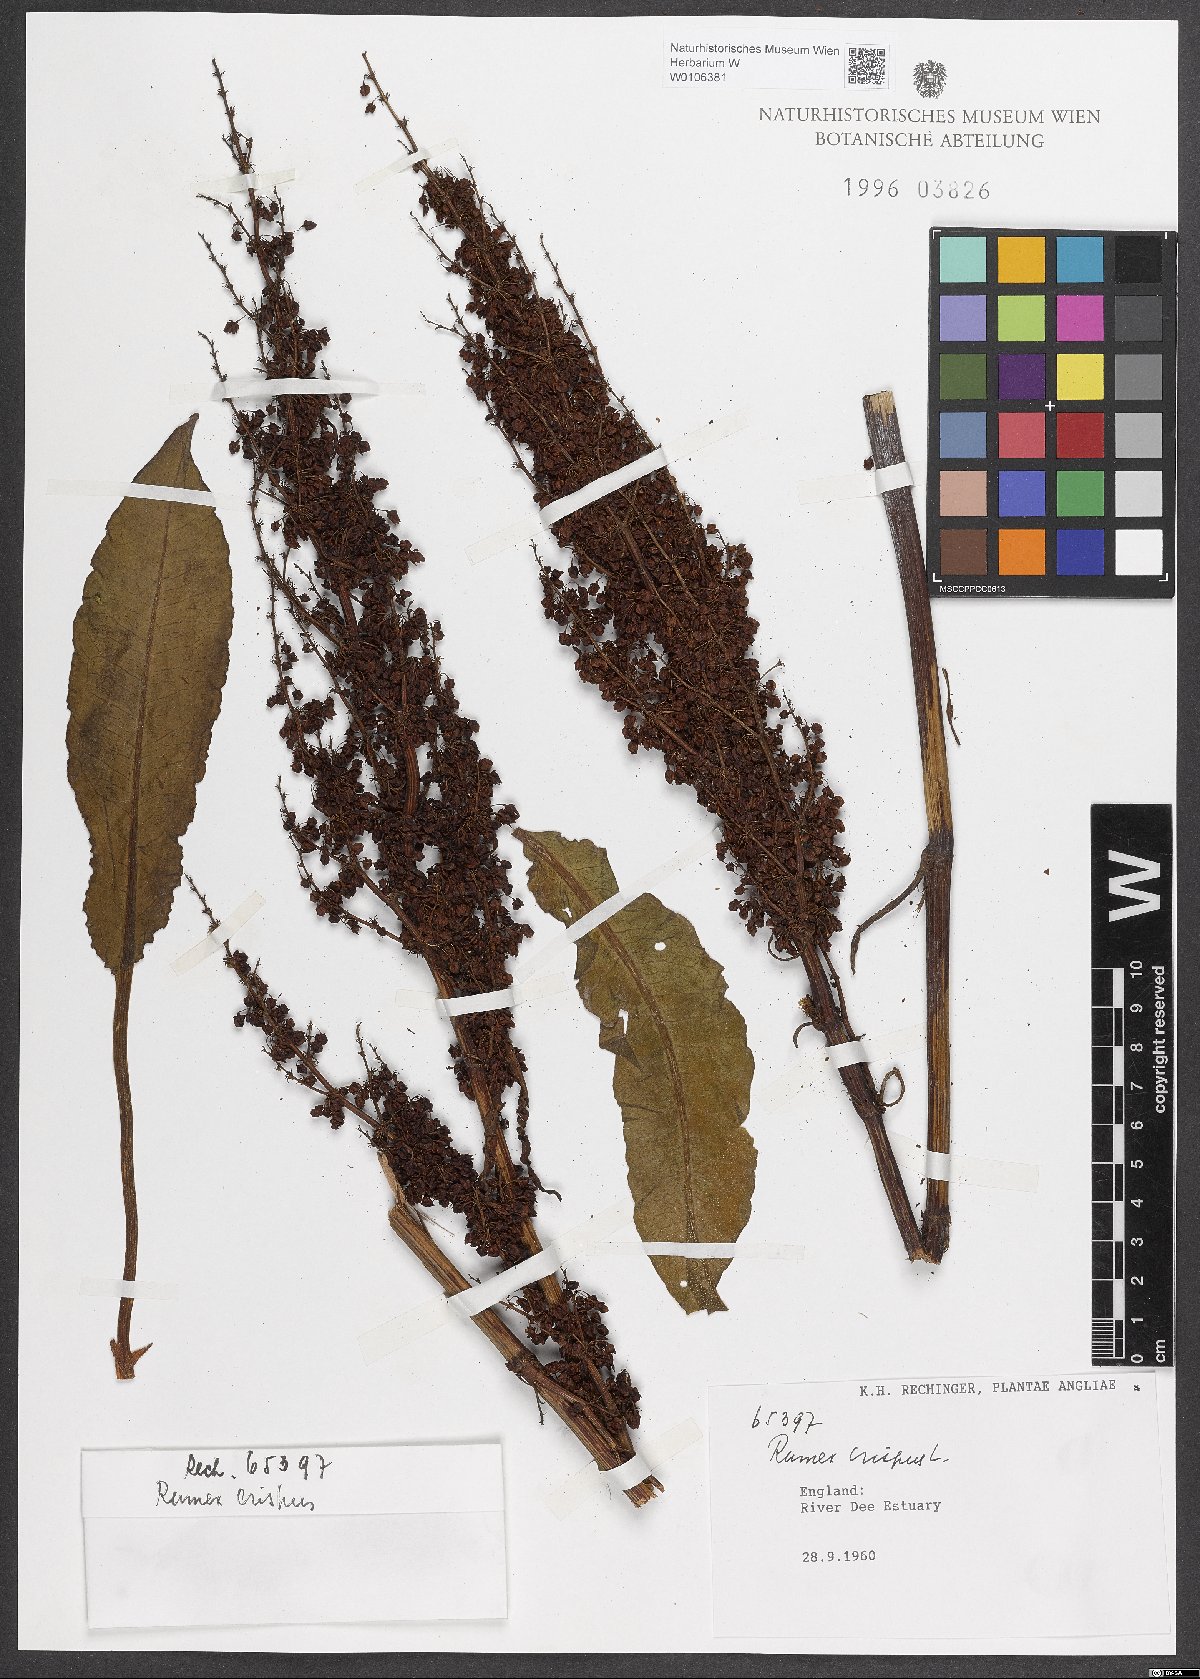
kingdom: Plantae
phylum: Tracheophyta
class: Magnoliopsida
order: Caryophyllales
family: Polygonaceae
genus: Rumex
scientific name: Rumex crispus
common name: Curled dock
